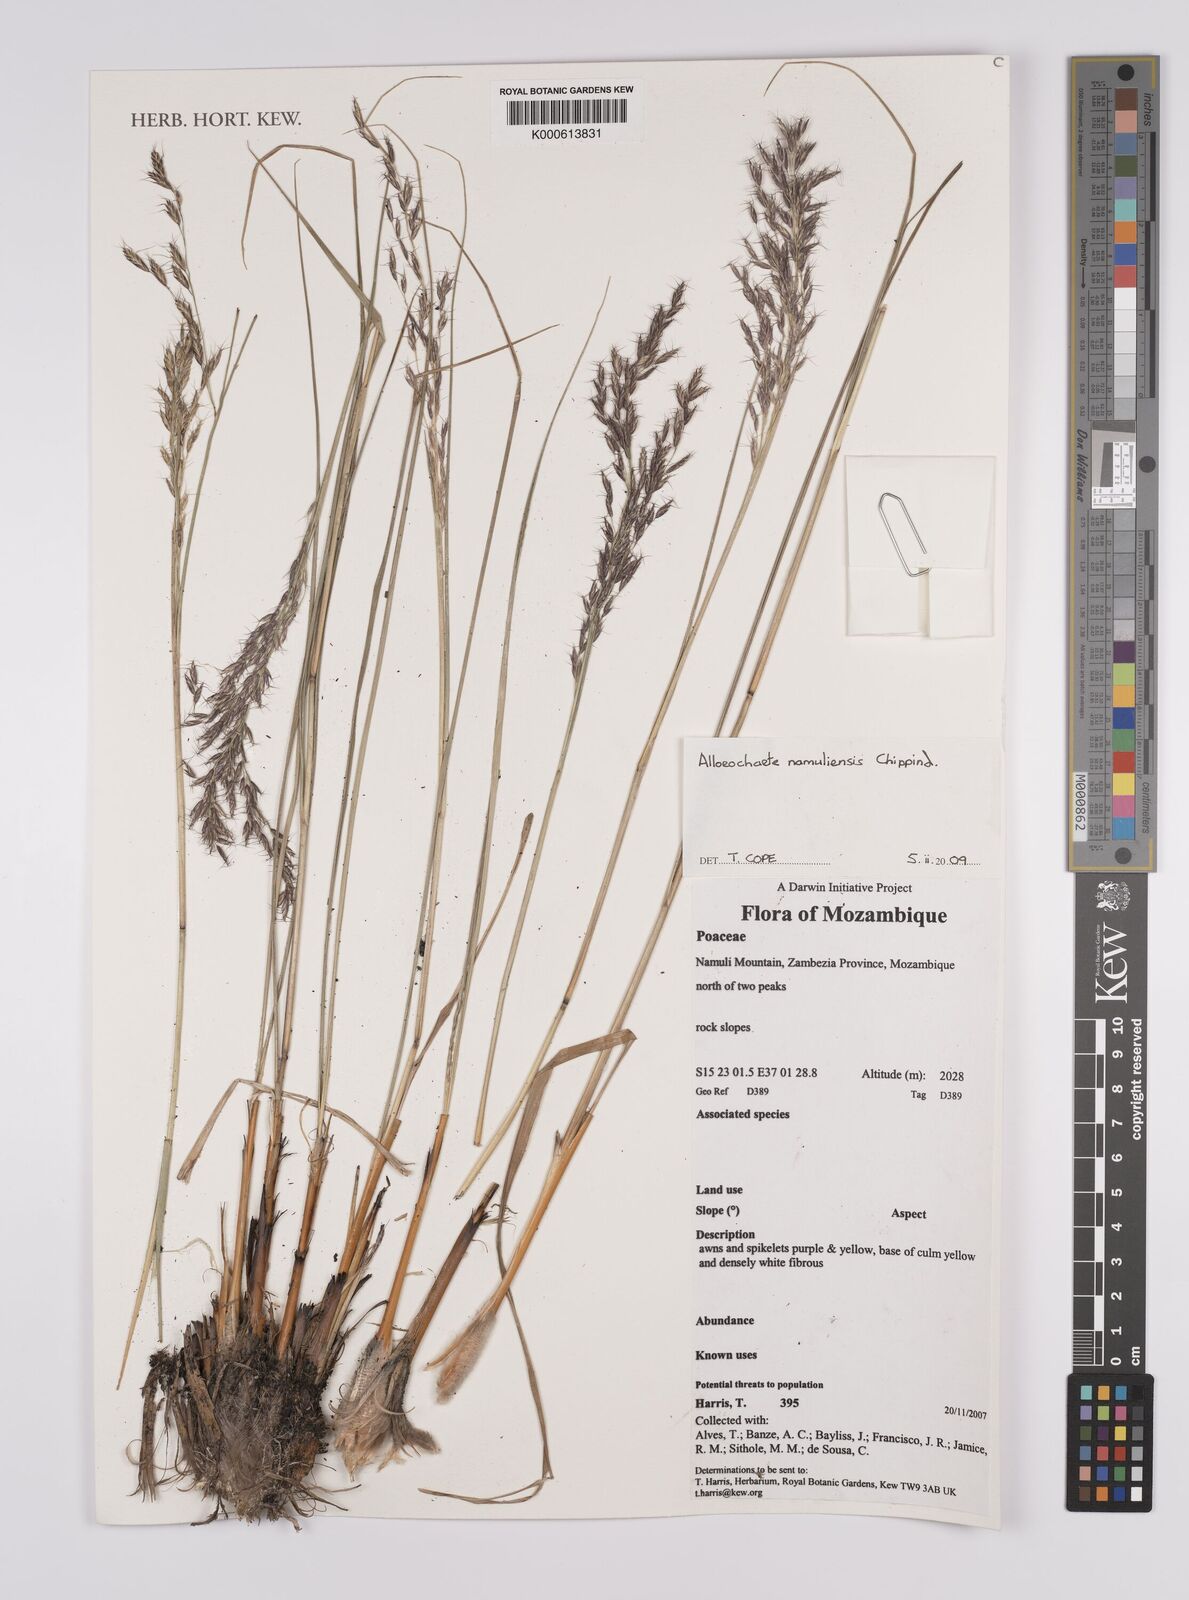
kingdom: Plantae
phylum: Tracheophyta
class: Liliopsida
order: Poales
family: Poaceae
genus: Alloeochaete
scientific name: Alloeochaete namuliensis
